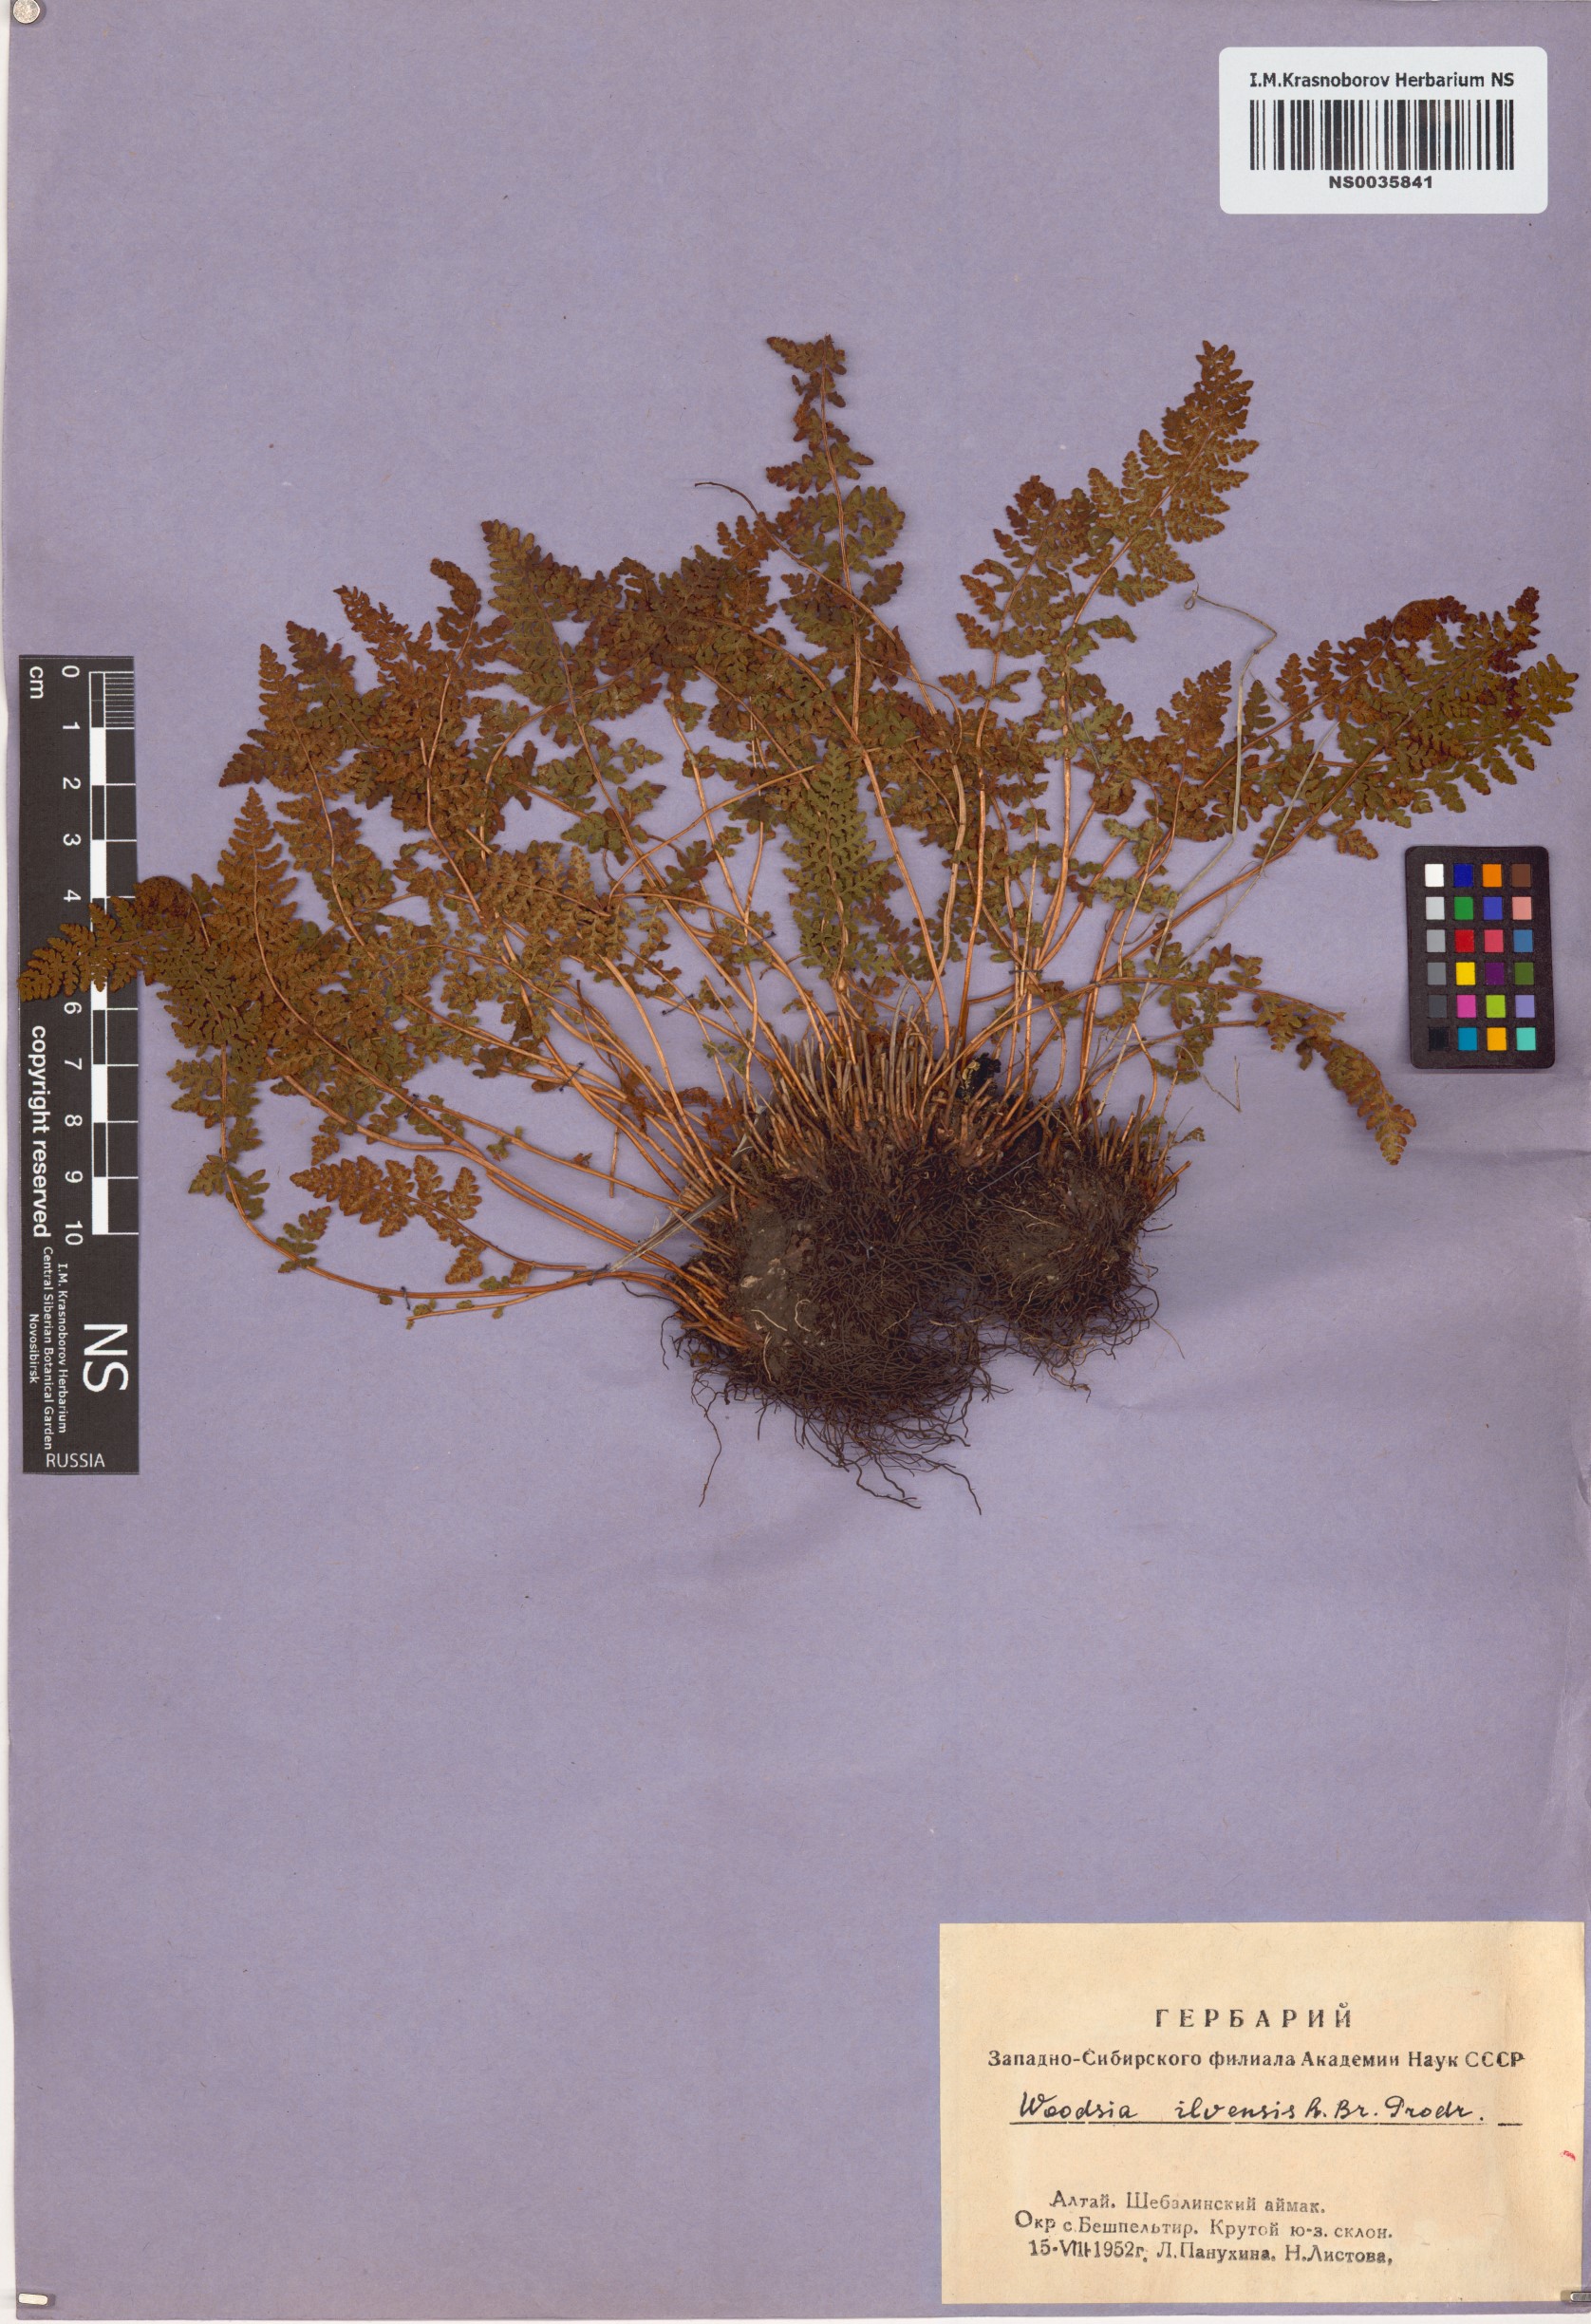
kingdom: Plantae
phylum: Tracheophyta
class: Polypodiopsida
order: Polypodiales
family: Woodsiaceae
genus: Woodsia
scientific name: Woodsia ilvensis
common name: Fragrant woodsia
